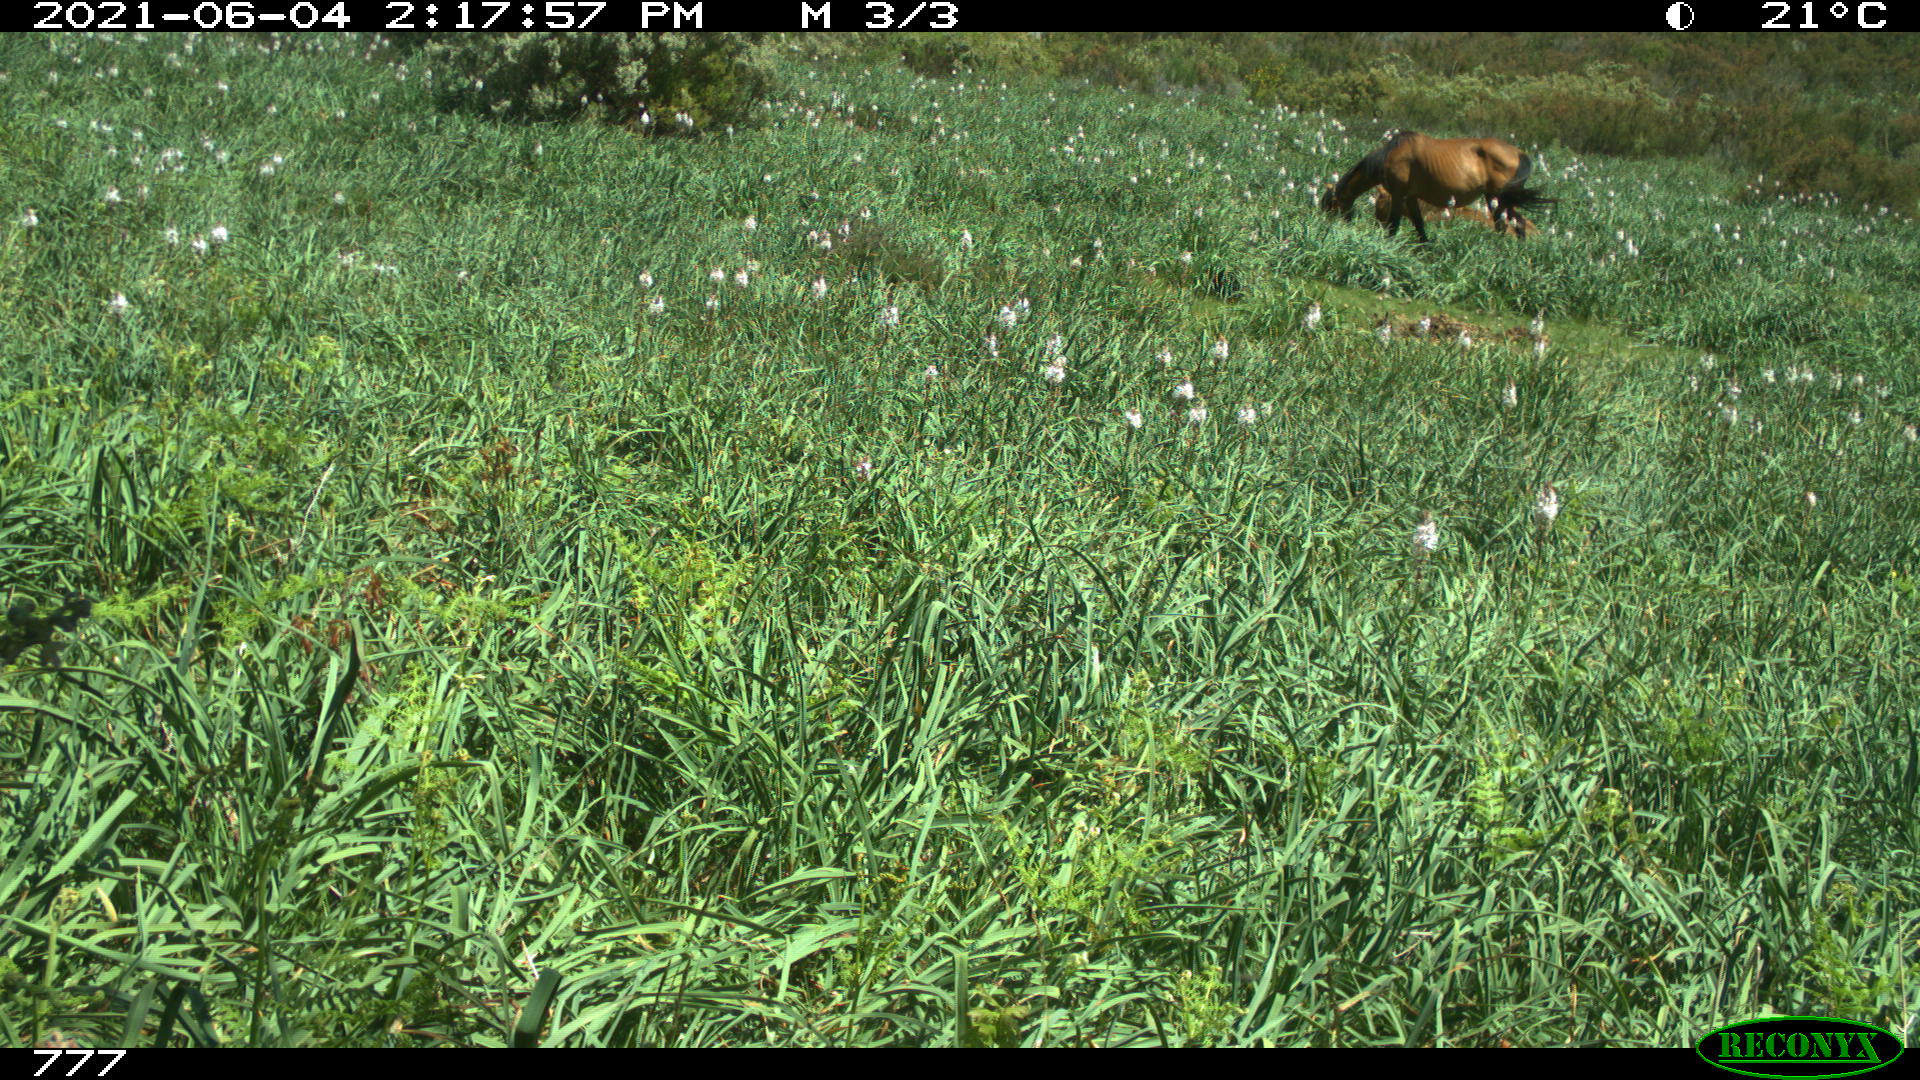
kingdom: Animalia
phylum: Chordata
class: Mammalia
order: Perissodactyla
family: Equidae
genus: Equus
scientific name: Equus caballus
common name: Horse
